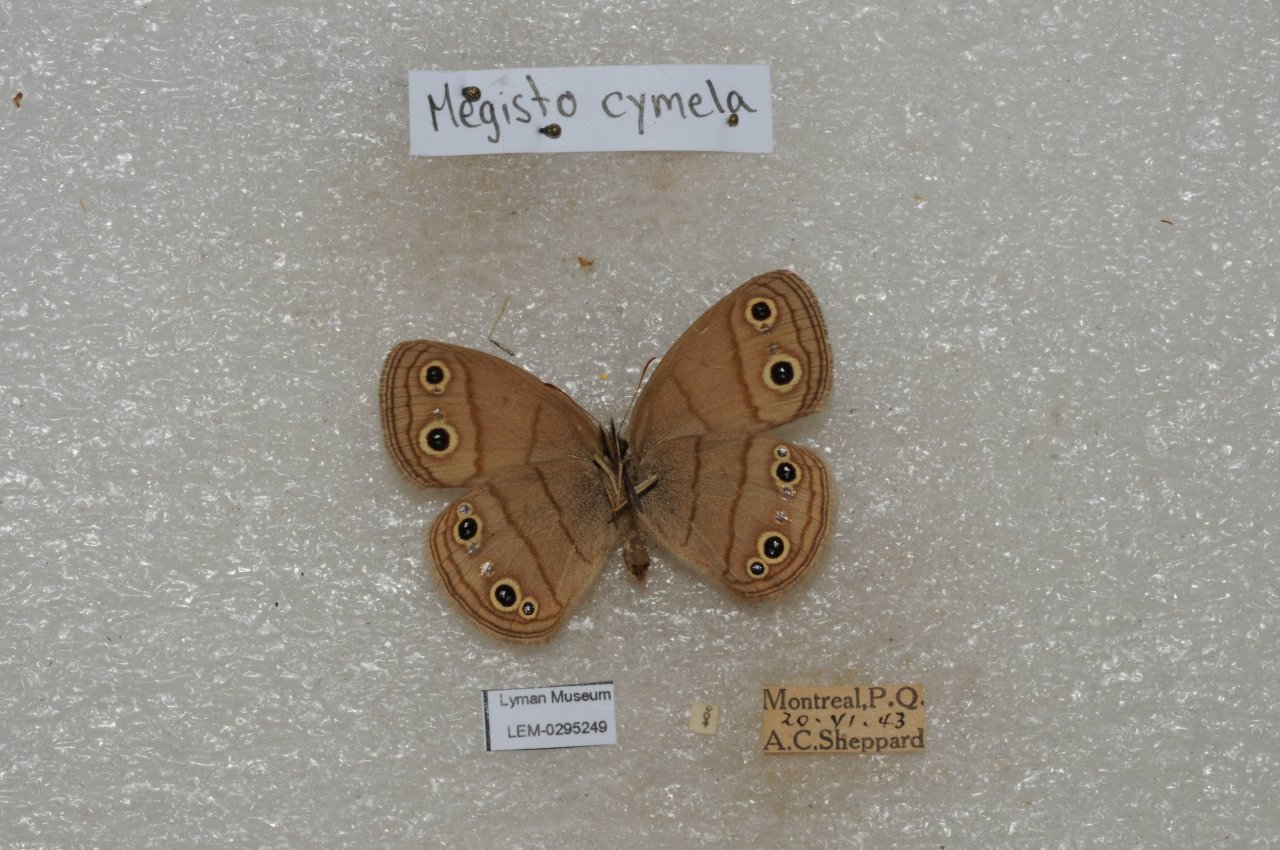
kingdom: Animalia
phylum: Arthropoda
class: Insecta
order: Lepidoptera
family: Nymphalidae
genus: Euptychia
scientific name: Euptychia cymela
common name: Little Wood Satyr
